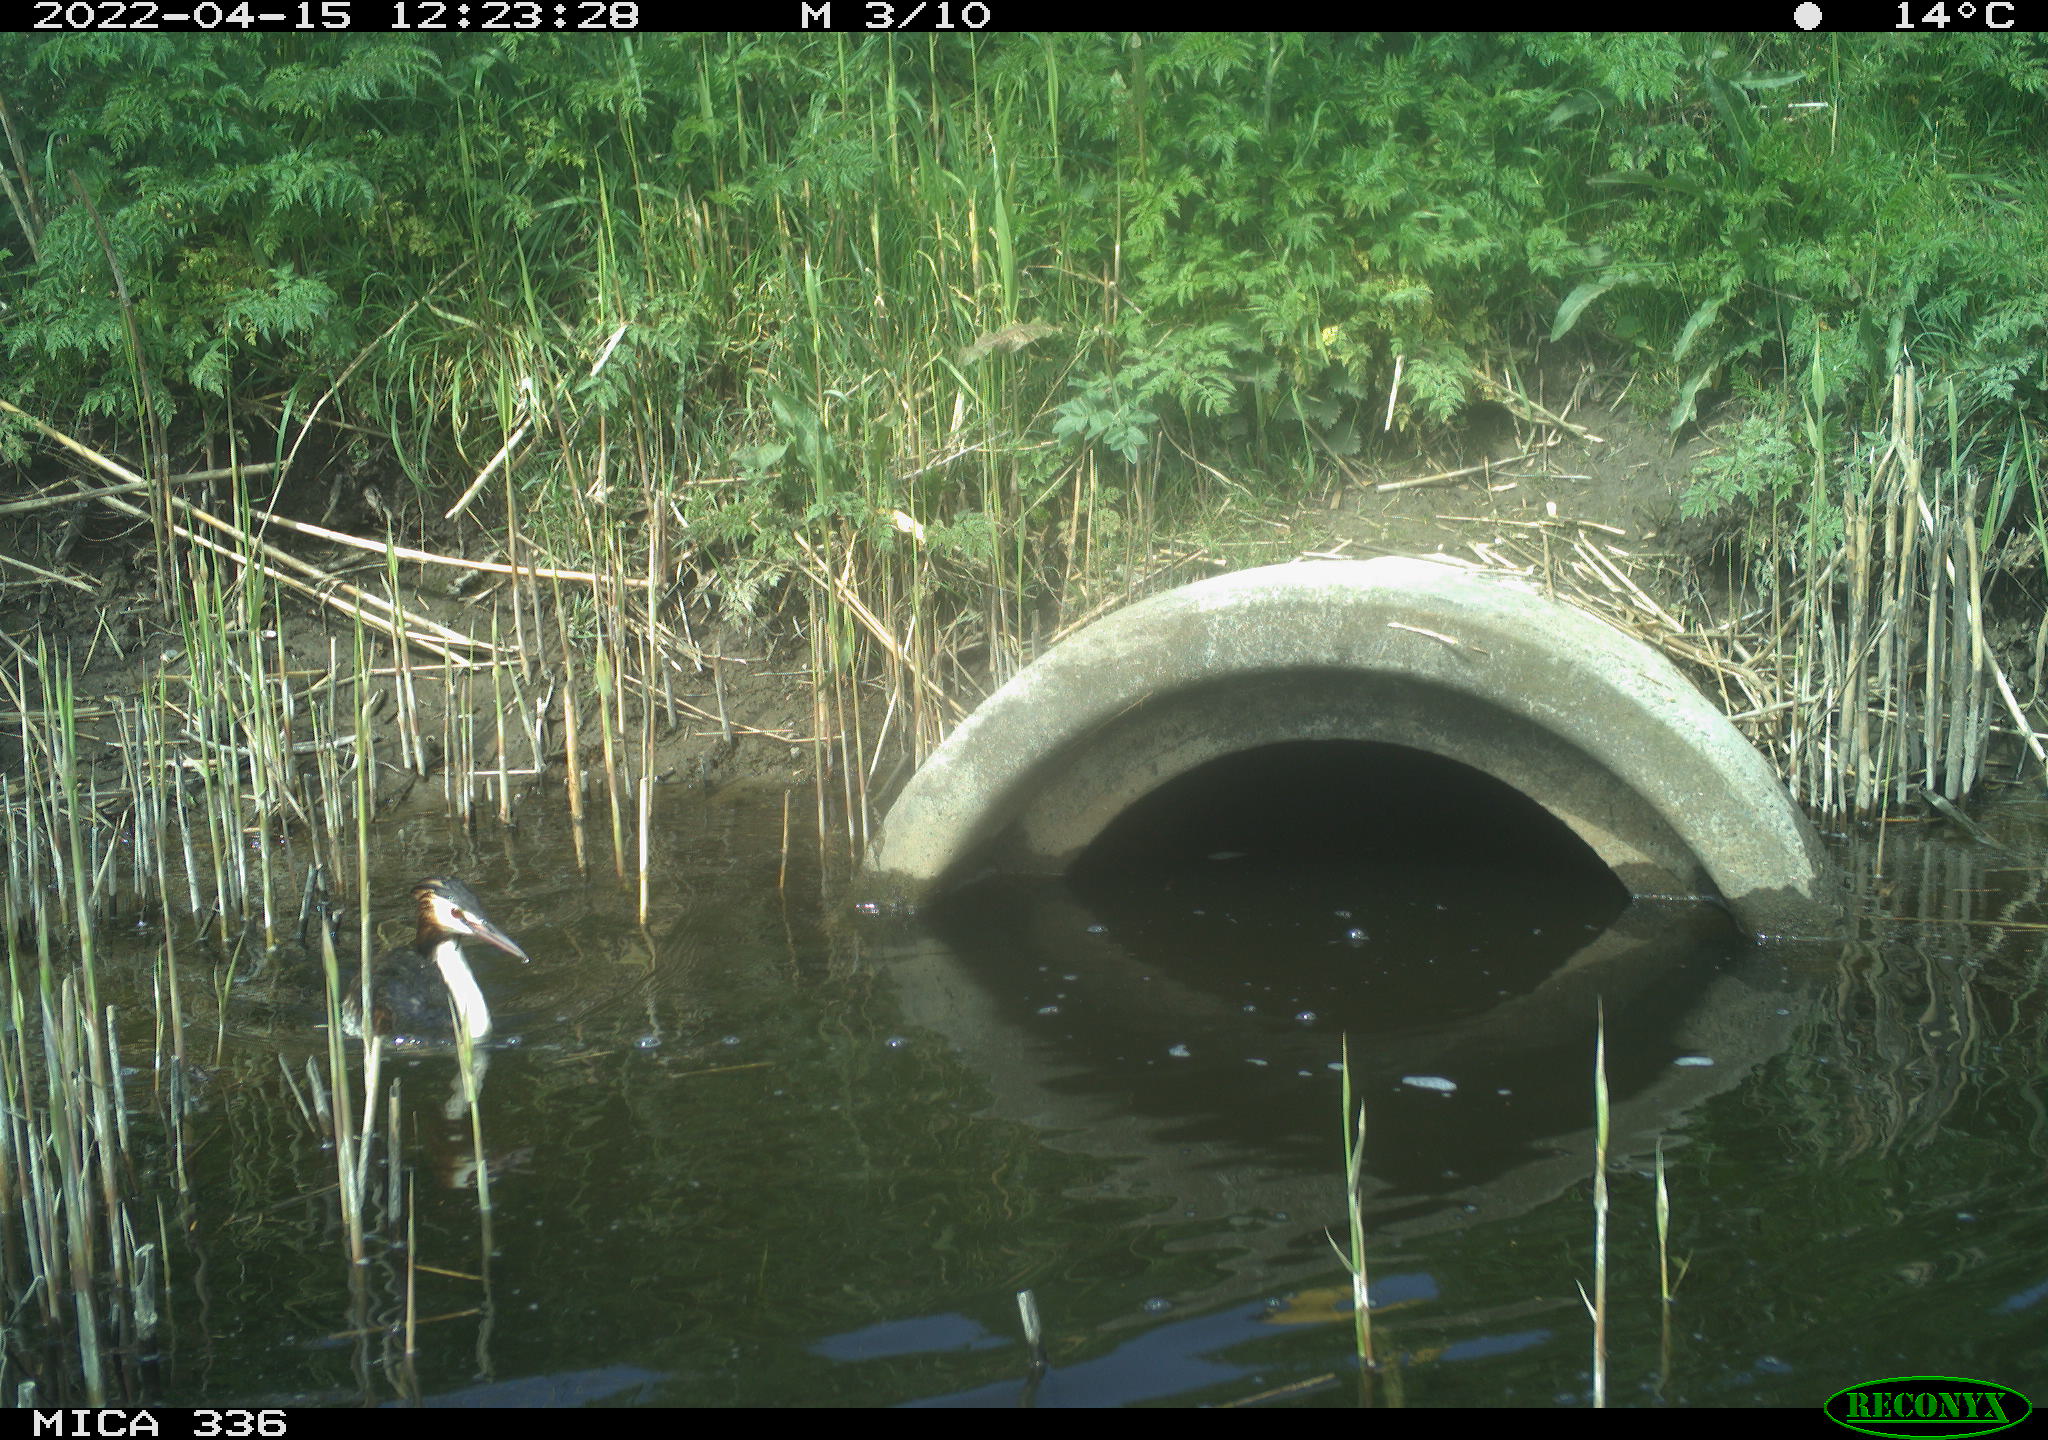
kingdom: Animalia
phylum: Chordata
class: Aves
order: Podicipediformes
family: Podicipedidae
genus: Podiceps
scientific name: Podiceps cristatus
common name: Great crested grebe
